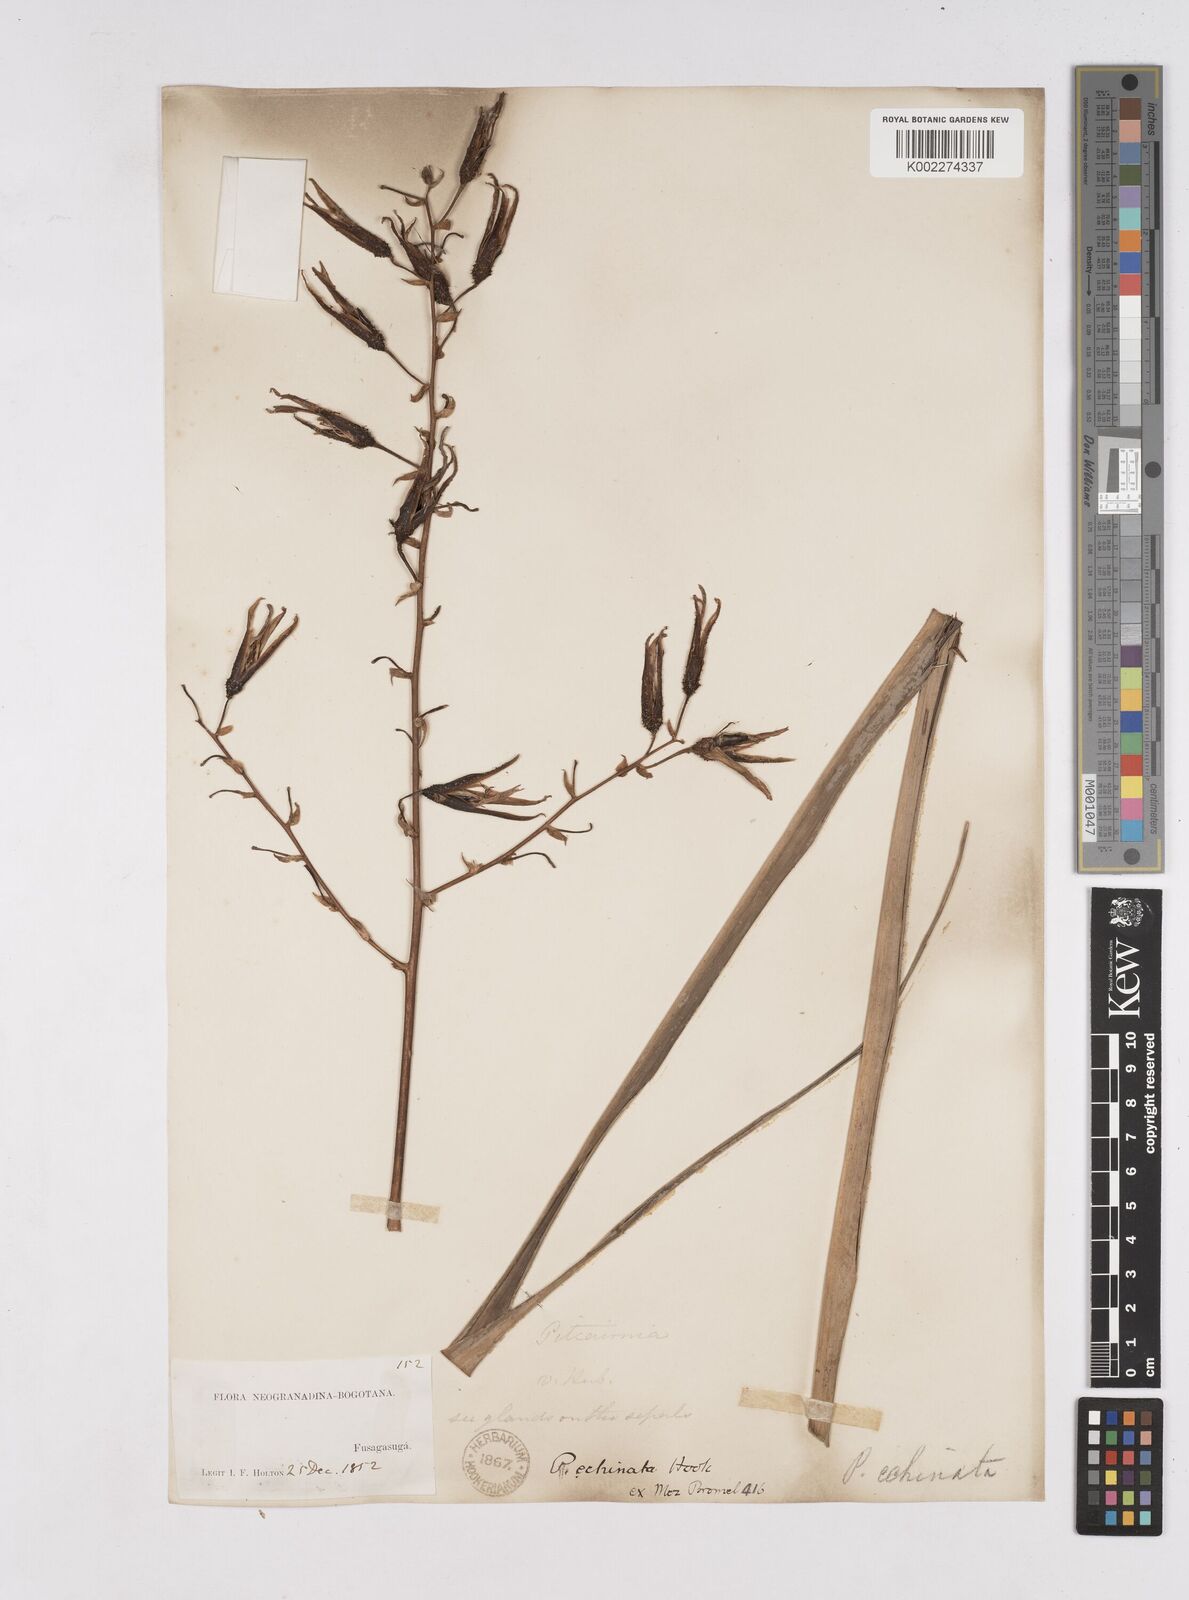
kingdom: Plantae
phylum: Tracheophyta
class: Liliopsida
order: Poales
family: Bromeliaceae
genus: Pitcairnia
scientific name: Pitcairnia echinata
